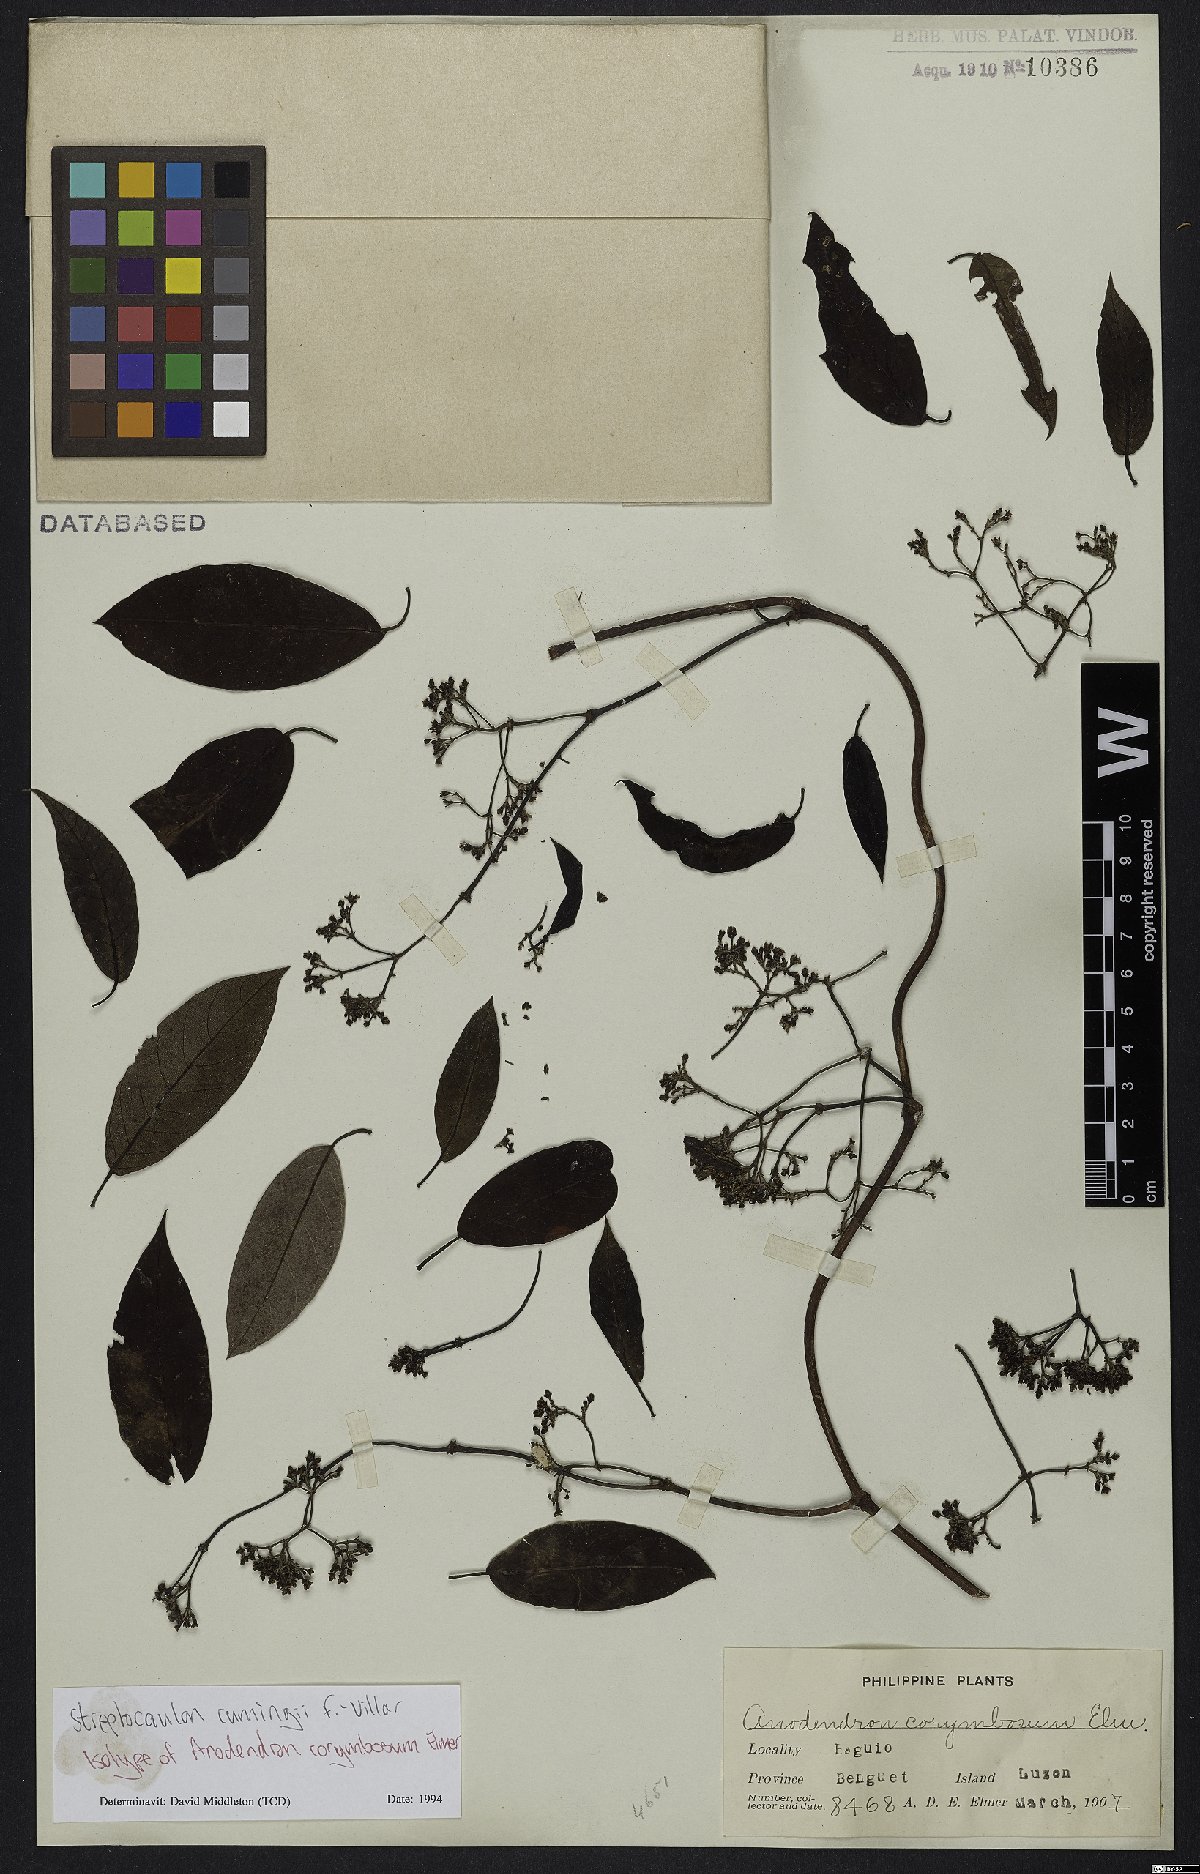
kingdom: Plantae
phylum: Tracheophyta
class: Magnoliopsida
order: Gentianales
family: Apocynaceae
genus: Streptocaulon
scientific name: Streptocaulon cumingii
